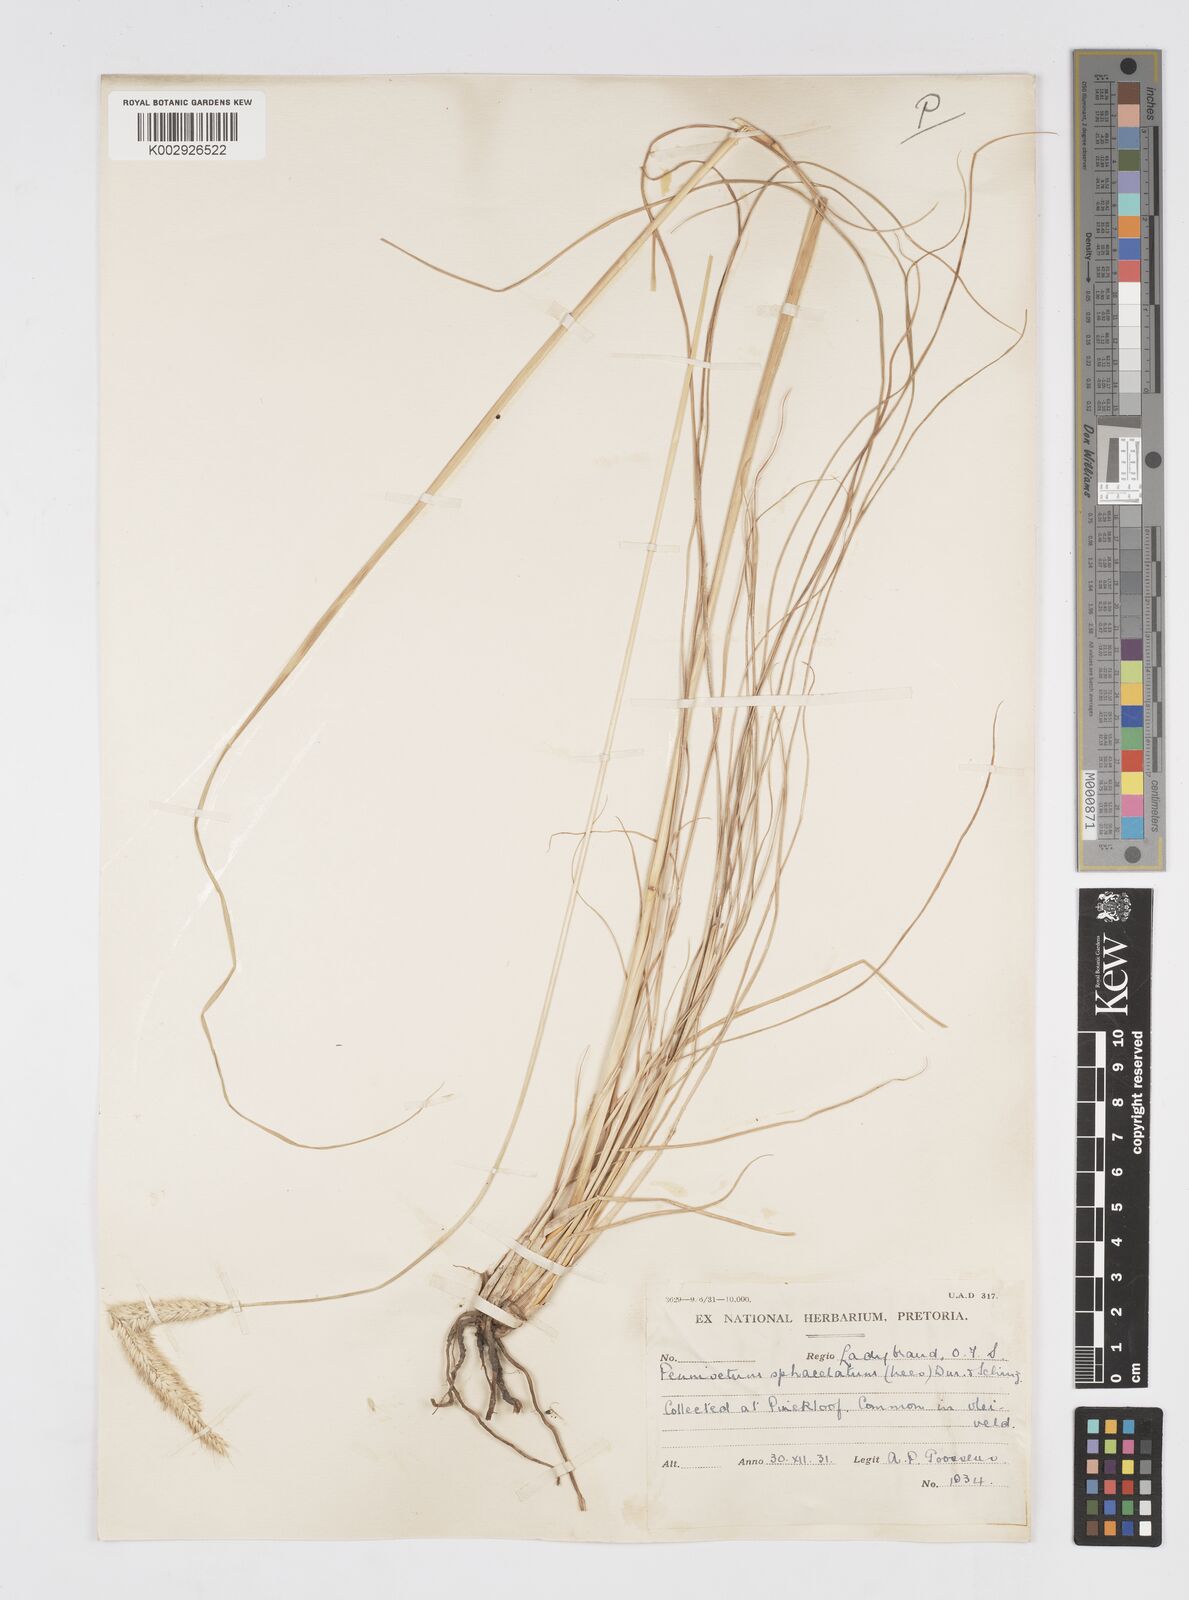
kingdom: Plantae
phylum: Tracheophyta
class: Liliopsida
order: Poales
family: Poaceae
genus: Cenchrus
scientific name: Cenchrus sphacelatus
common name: Bulgras
